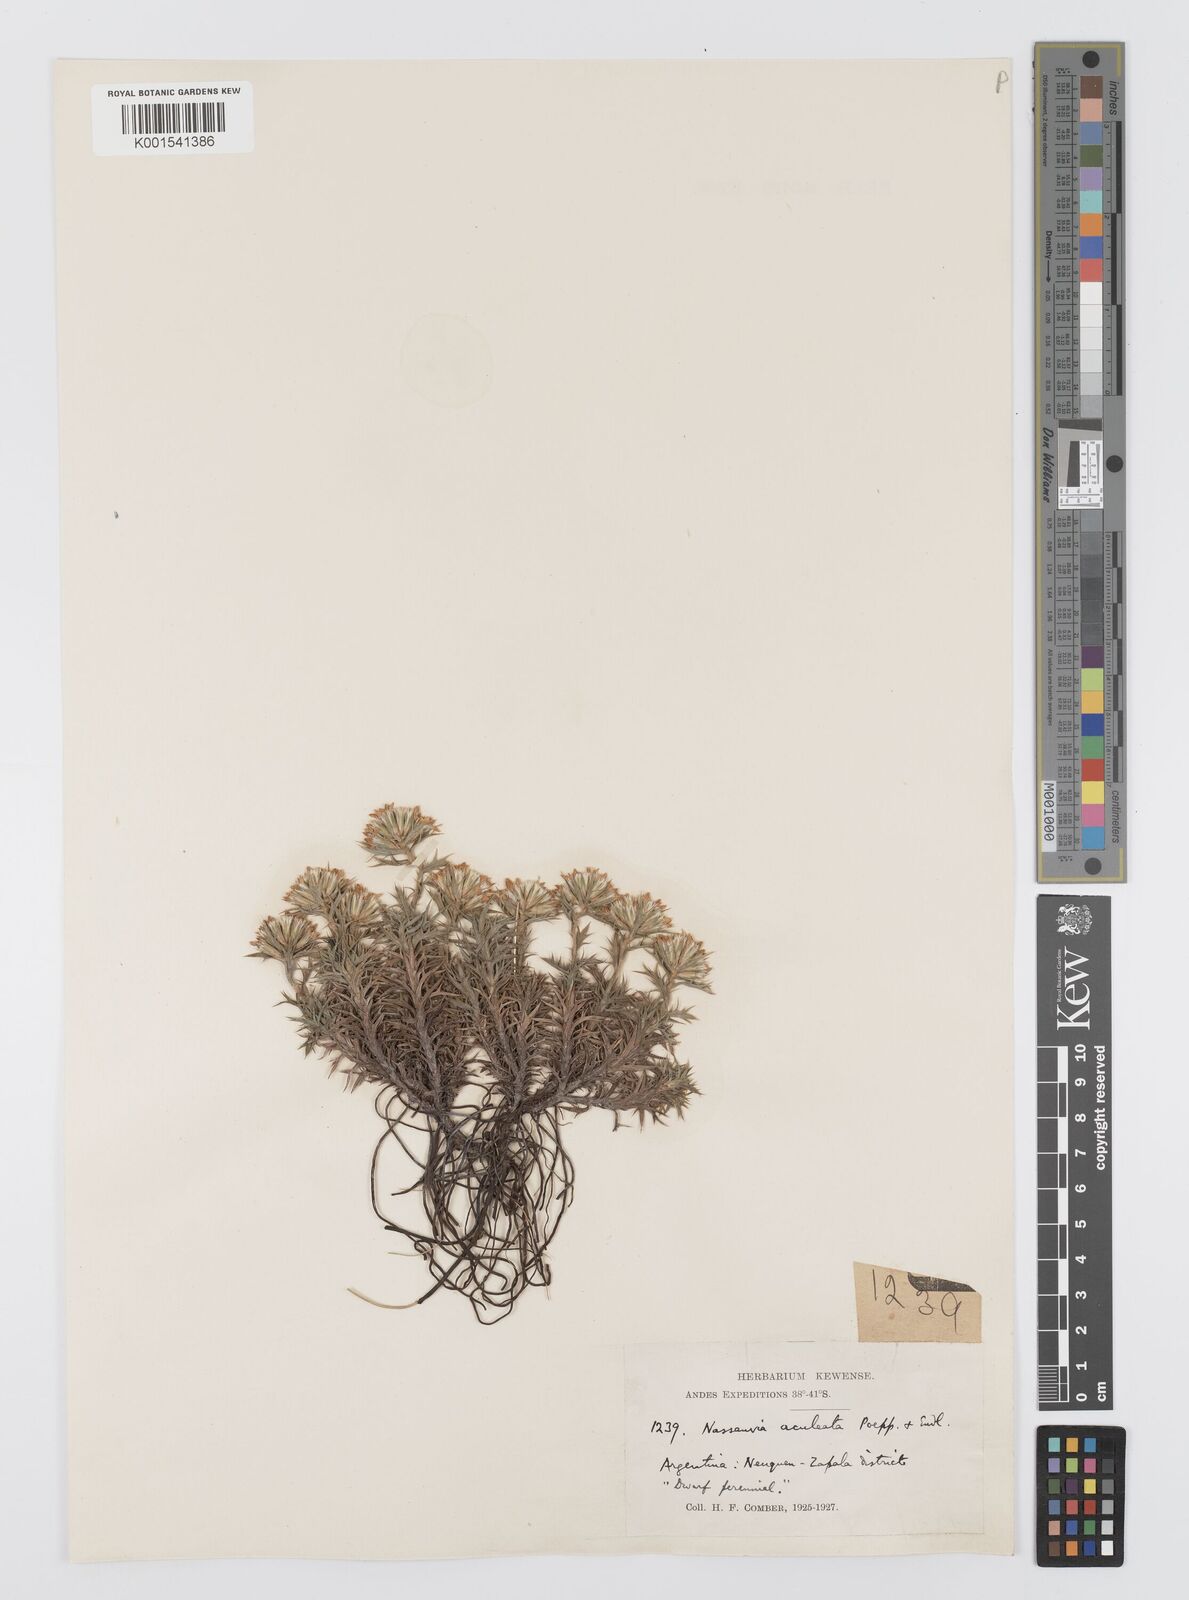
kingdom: Plantae
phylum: Tracheophyta
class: Magnoliopsida
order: Asterales
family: Asteraceae
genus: Nassauvia
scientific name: Nassauvia aculeata
